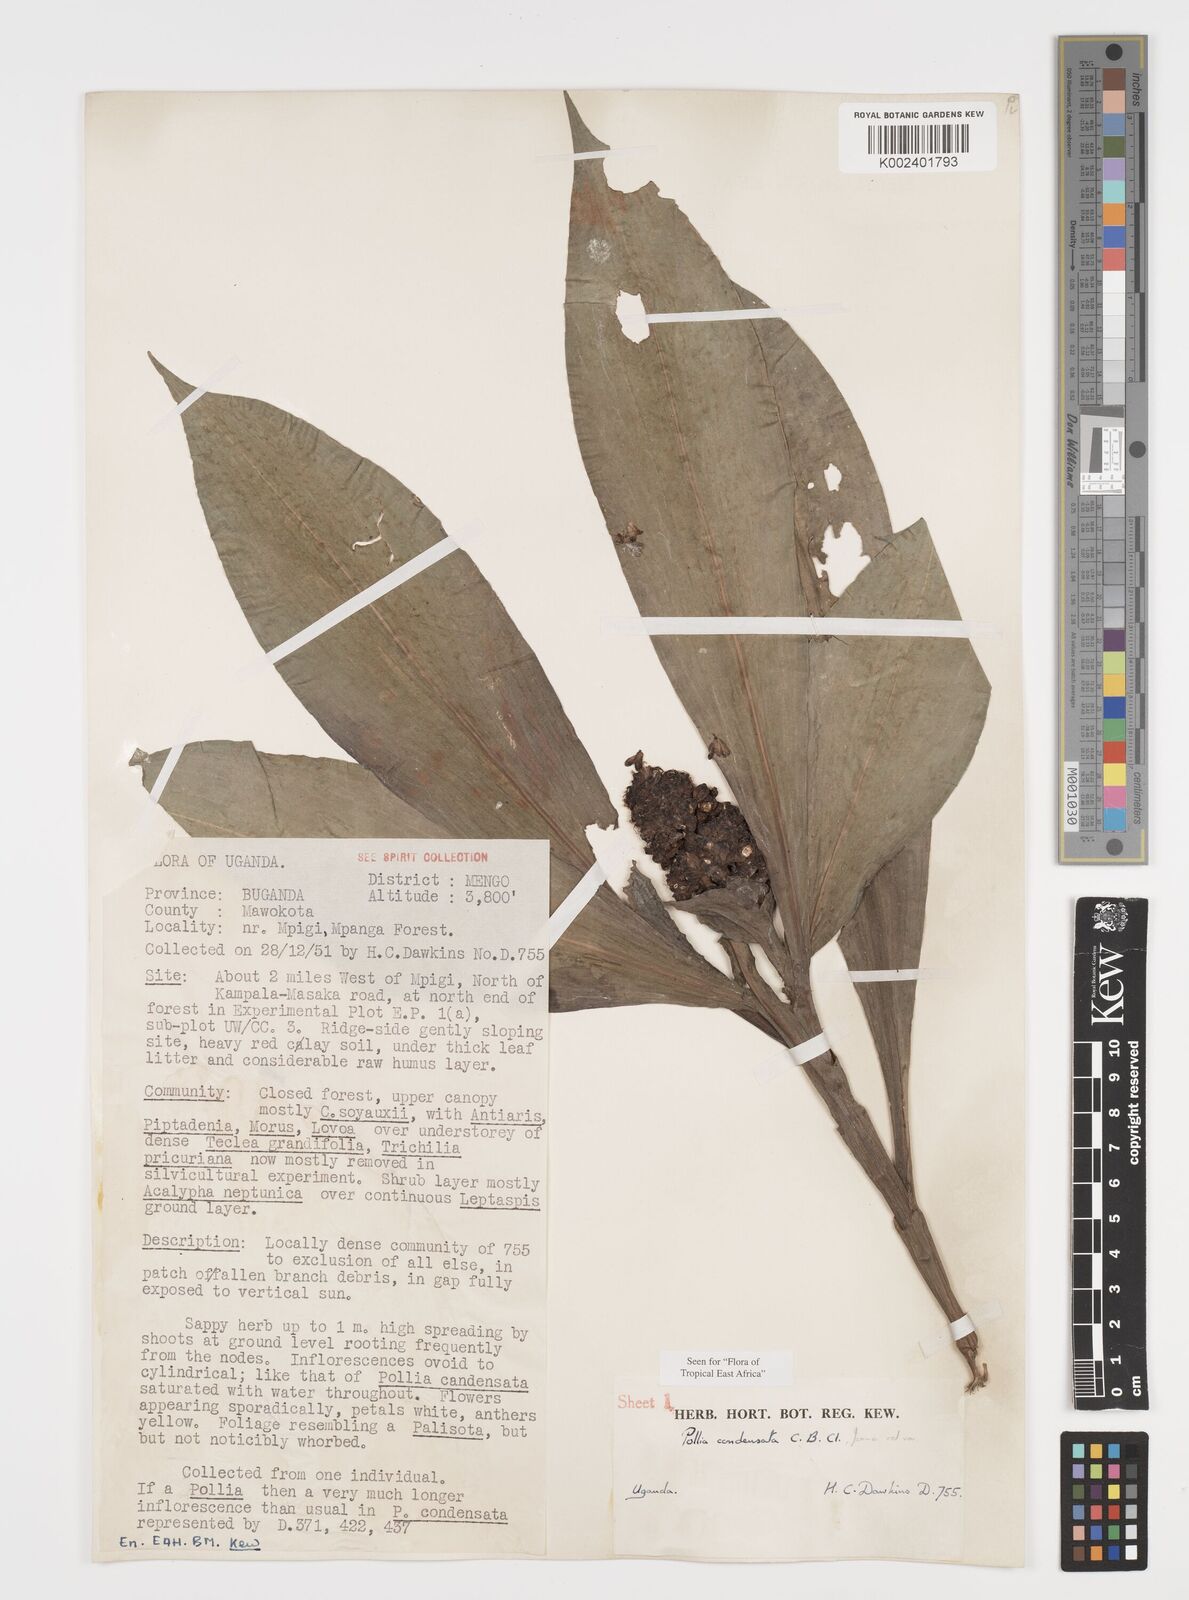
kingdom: Plantae
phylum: Tracheophyta
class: Liliopsida
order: Commelinales
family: Commelinaceae
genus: Pollia
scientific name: Pollia condensata
